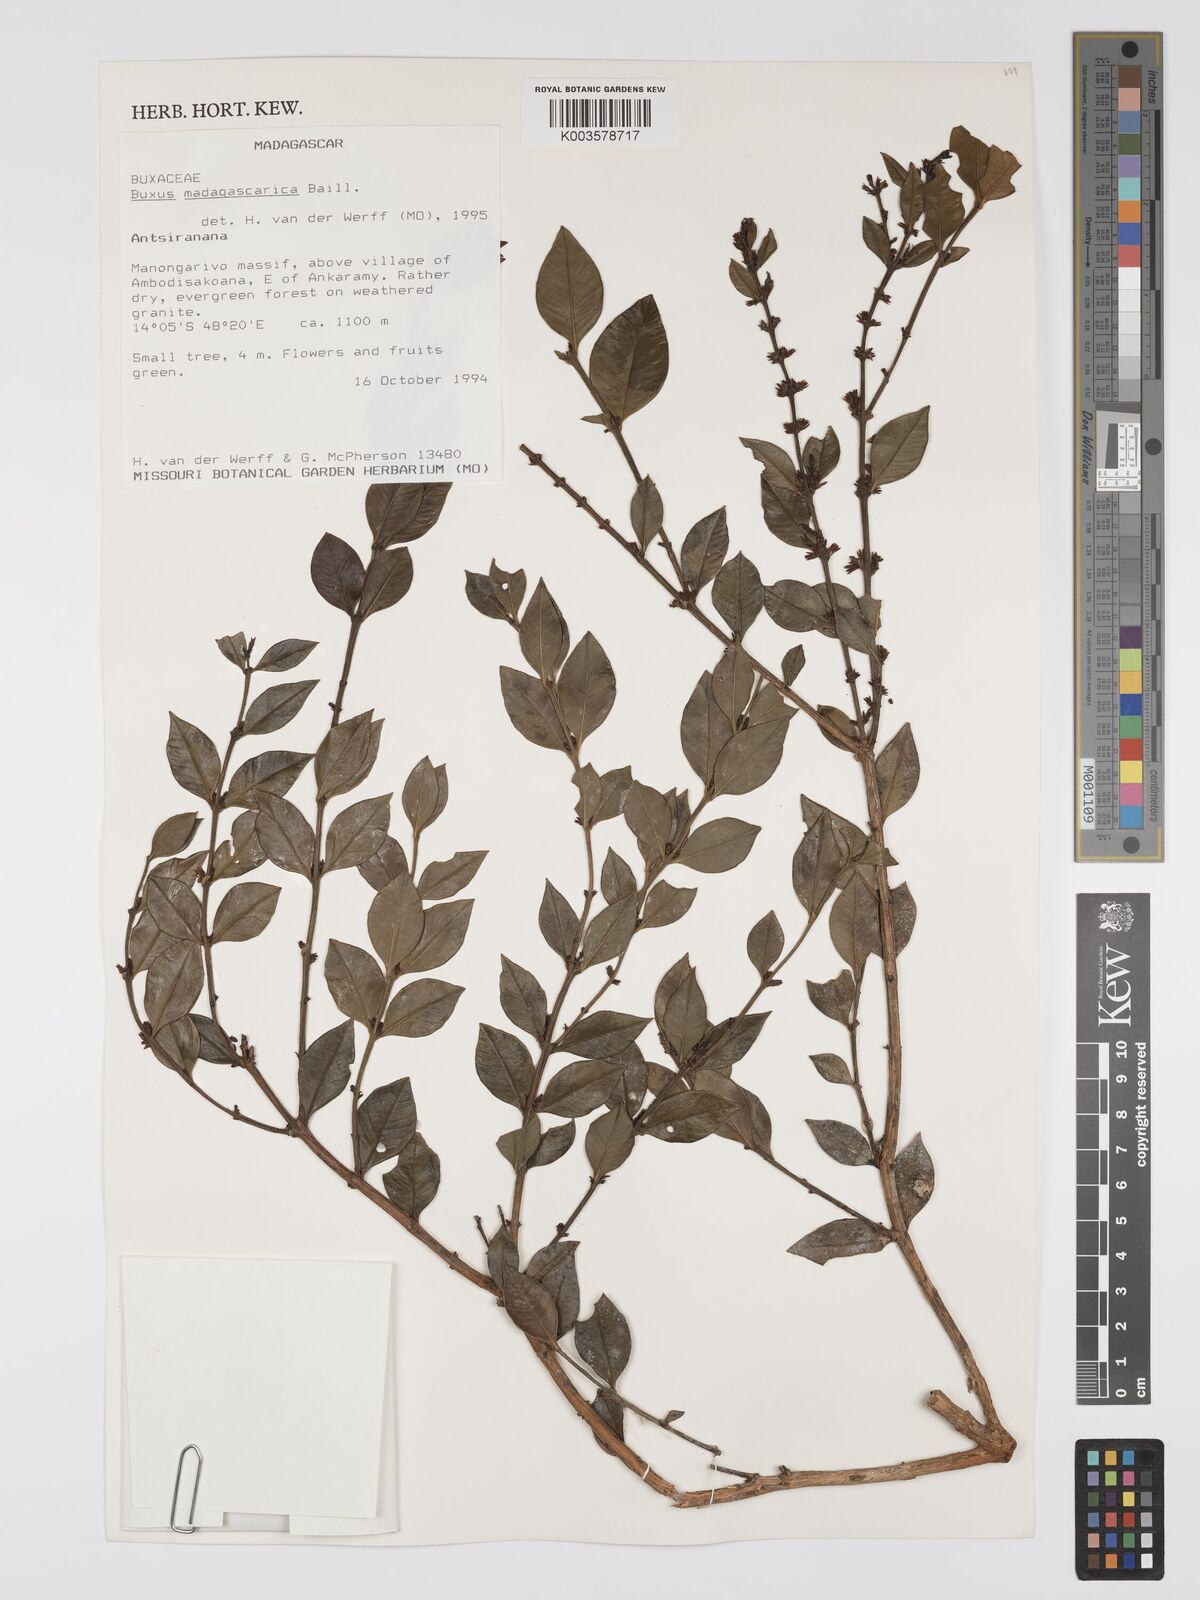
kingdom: Plantae
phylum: Tracheophyta
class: Magnoliopsida
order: Buxales
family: Buxaceae
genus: Buxus
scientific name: Buxus madagascarica
